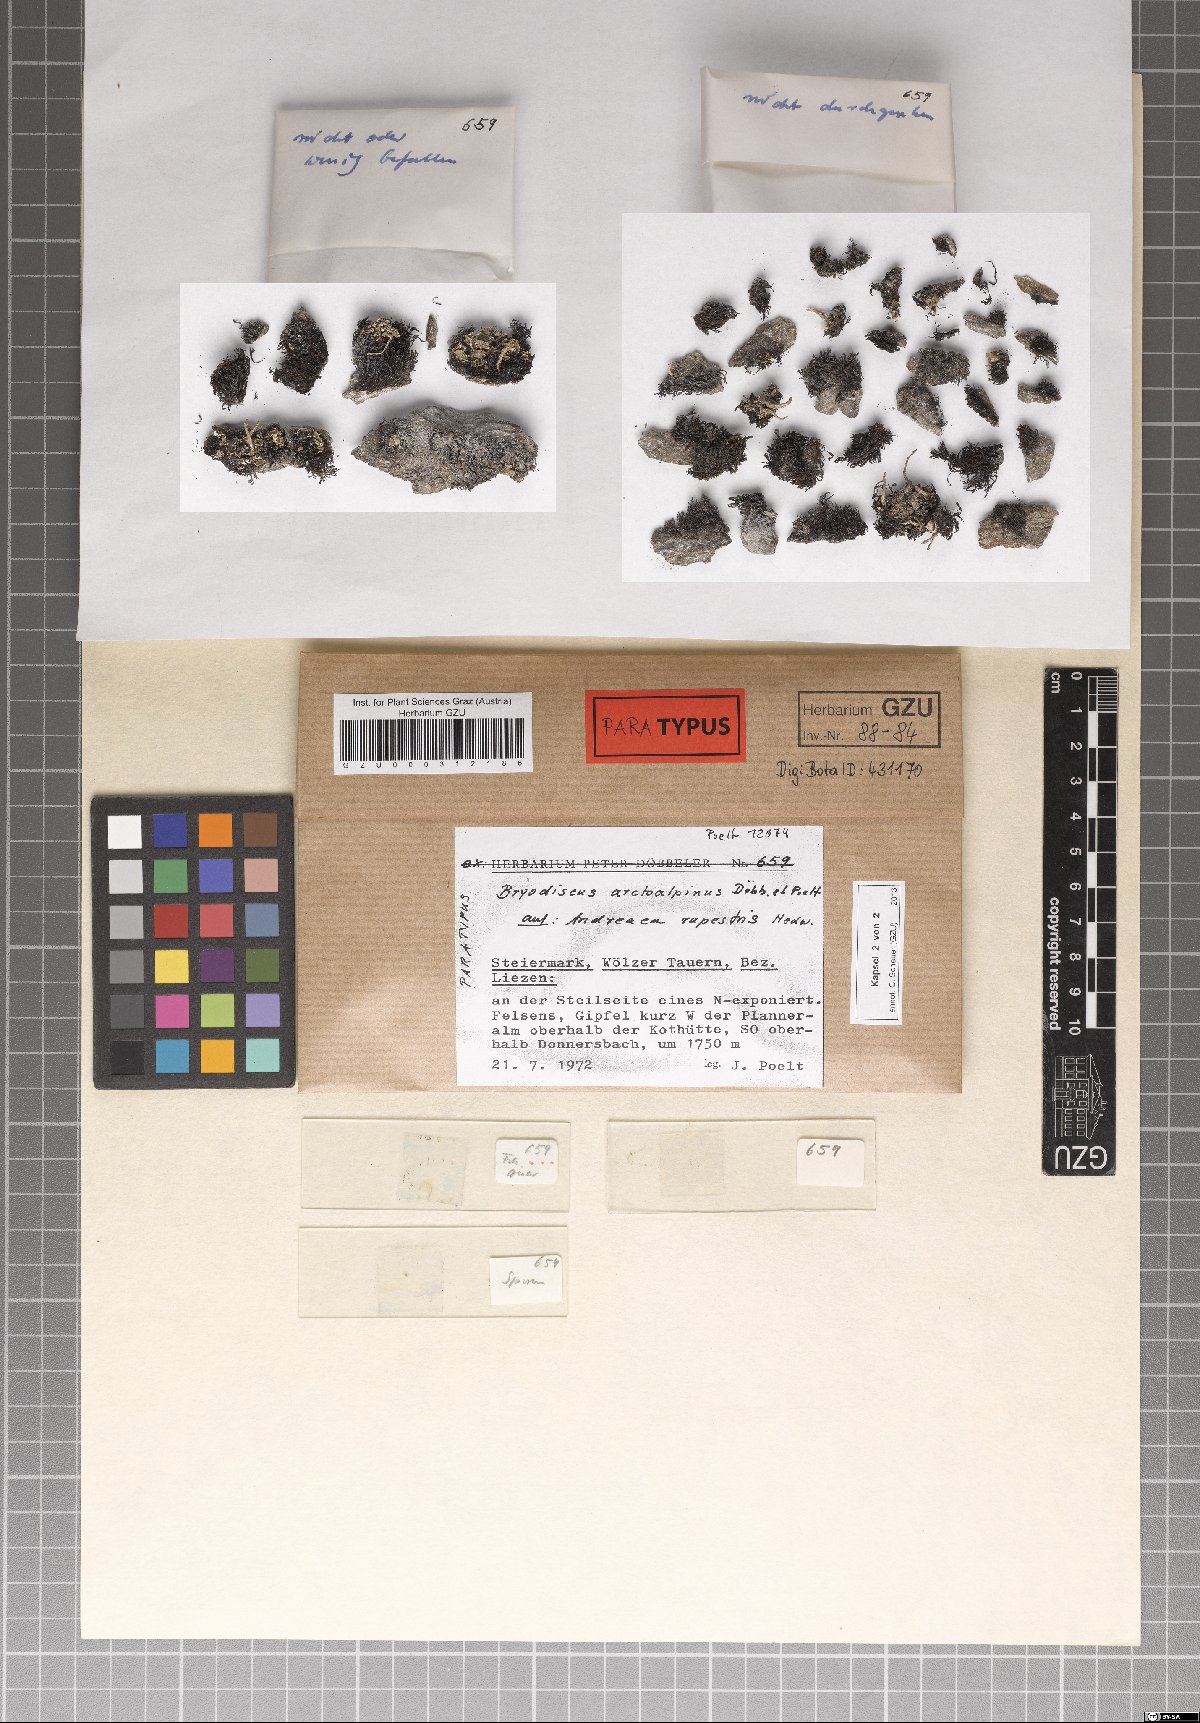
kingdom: Fungi
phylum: Ascomycota
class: Lecanoromycetes
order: Ostropales
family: Odontotremataceae
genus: Sphaeropezia
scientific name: Sphaeropezia arctoalpina
